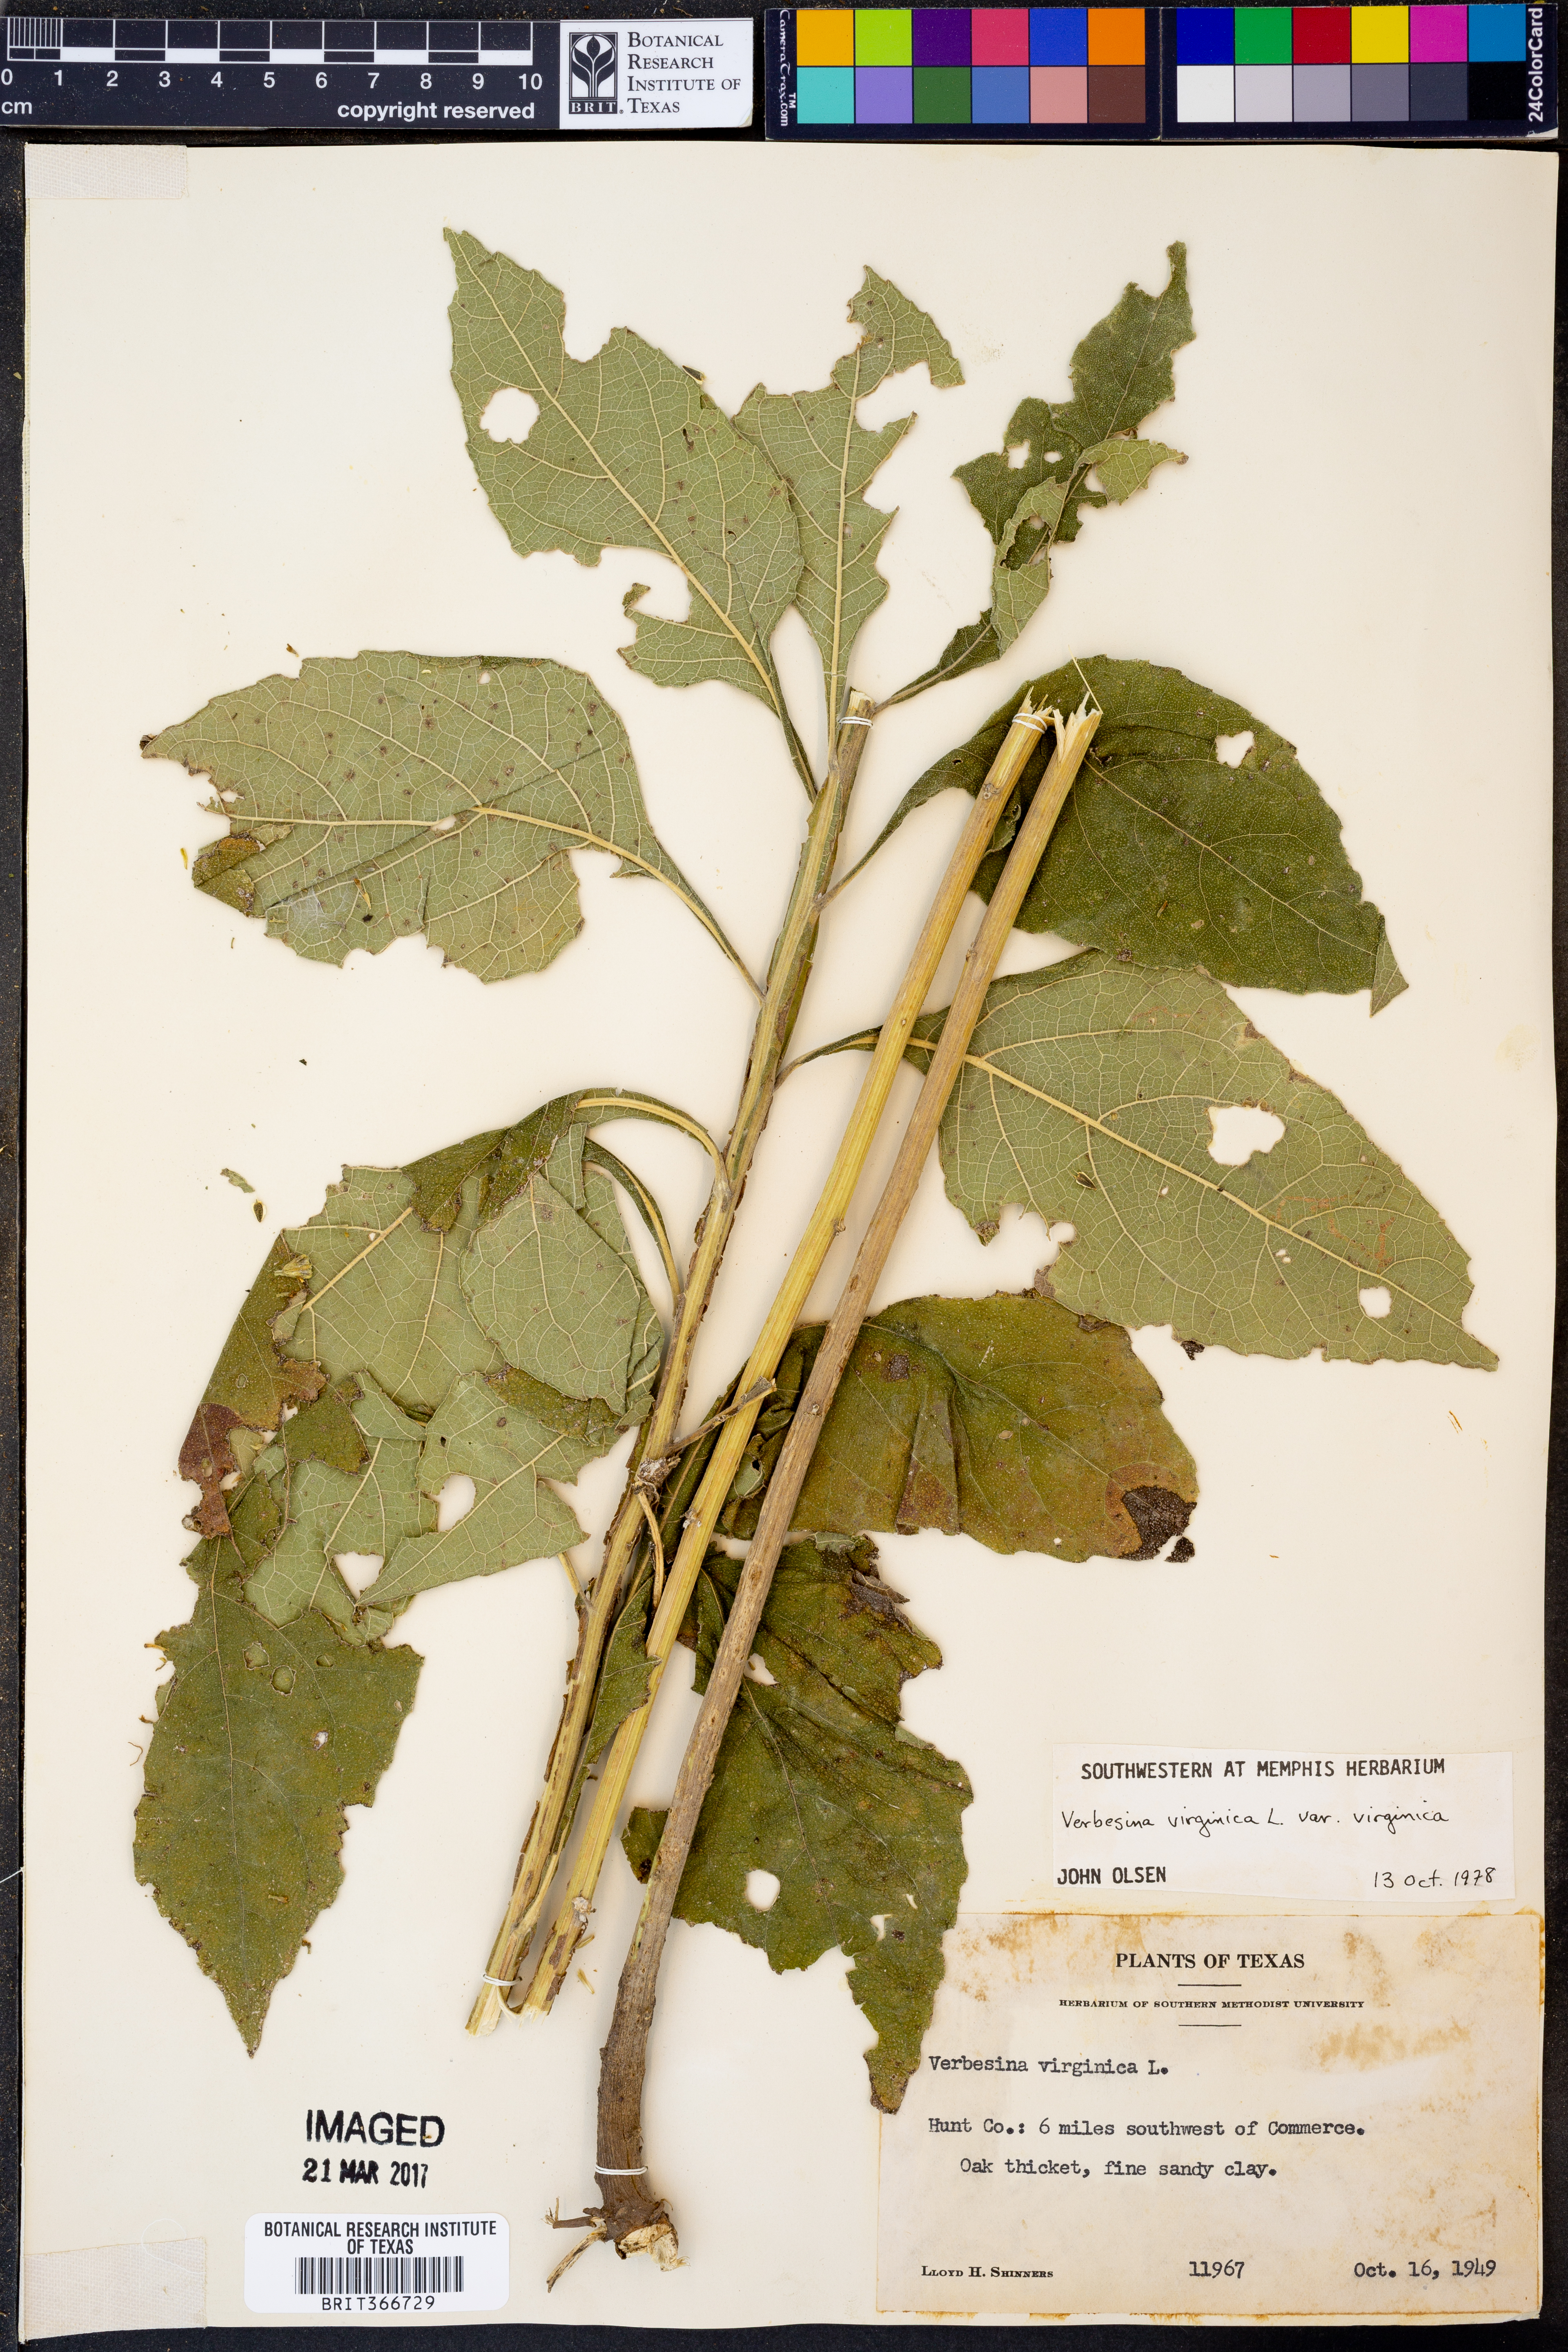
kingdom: Plantae
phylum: Tracheophyta
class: Magnoliopsida
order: Asterales
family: Asteraceae
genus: Verbesina
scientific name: Verbesina virginica
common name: Frostweed
